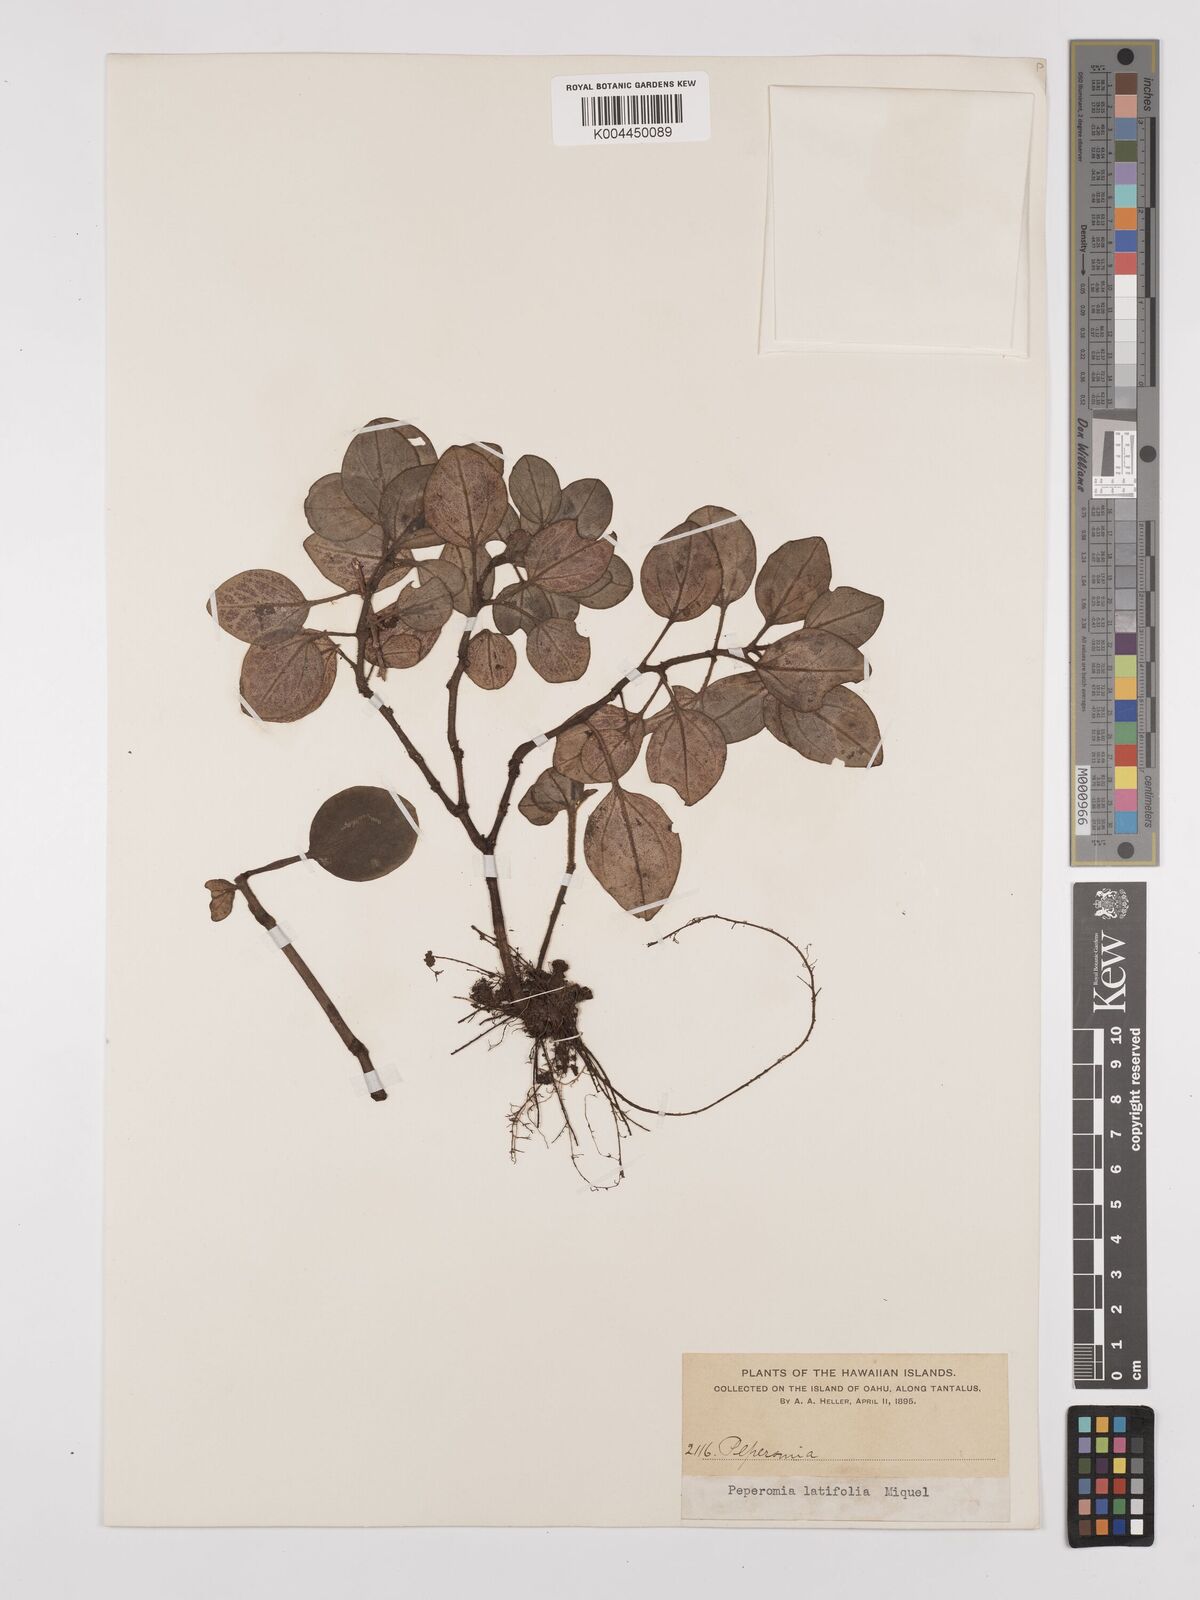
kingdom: Plantae
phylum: Tracheophyta
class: Magnoliopsida
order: Piperales
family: Piperaceae
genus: Peperomia
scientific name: Peperomia latifolia
